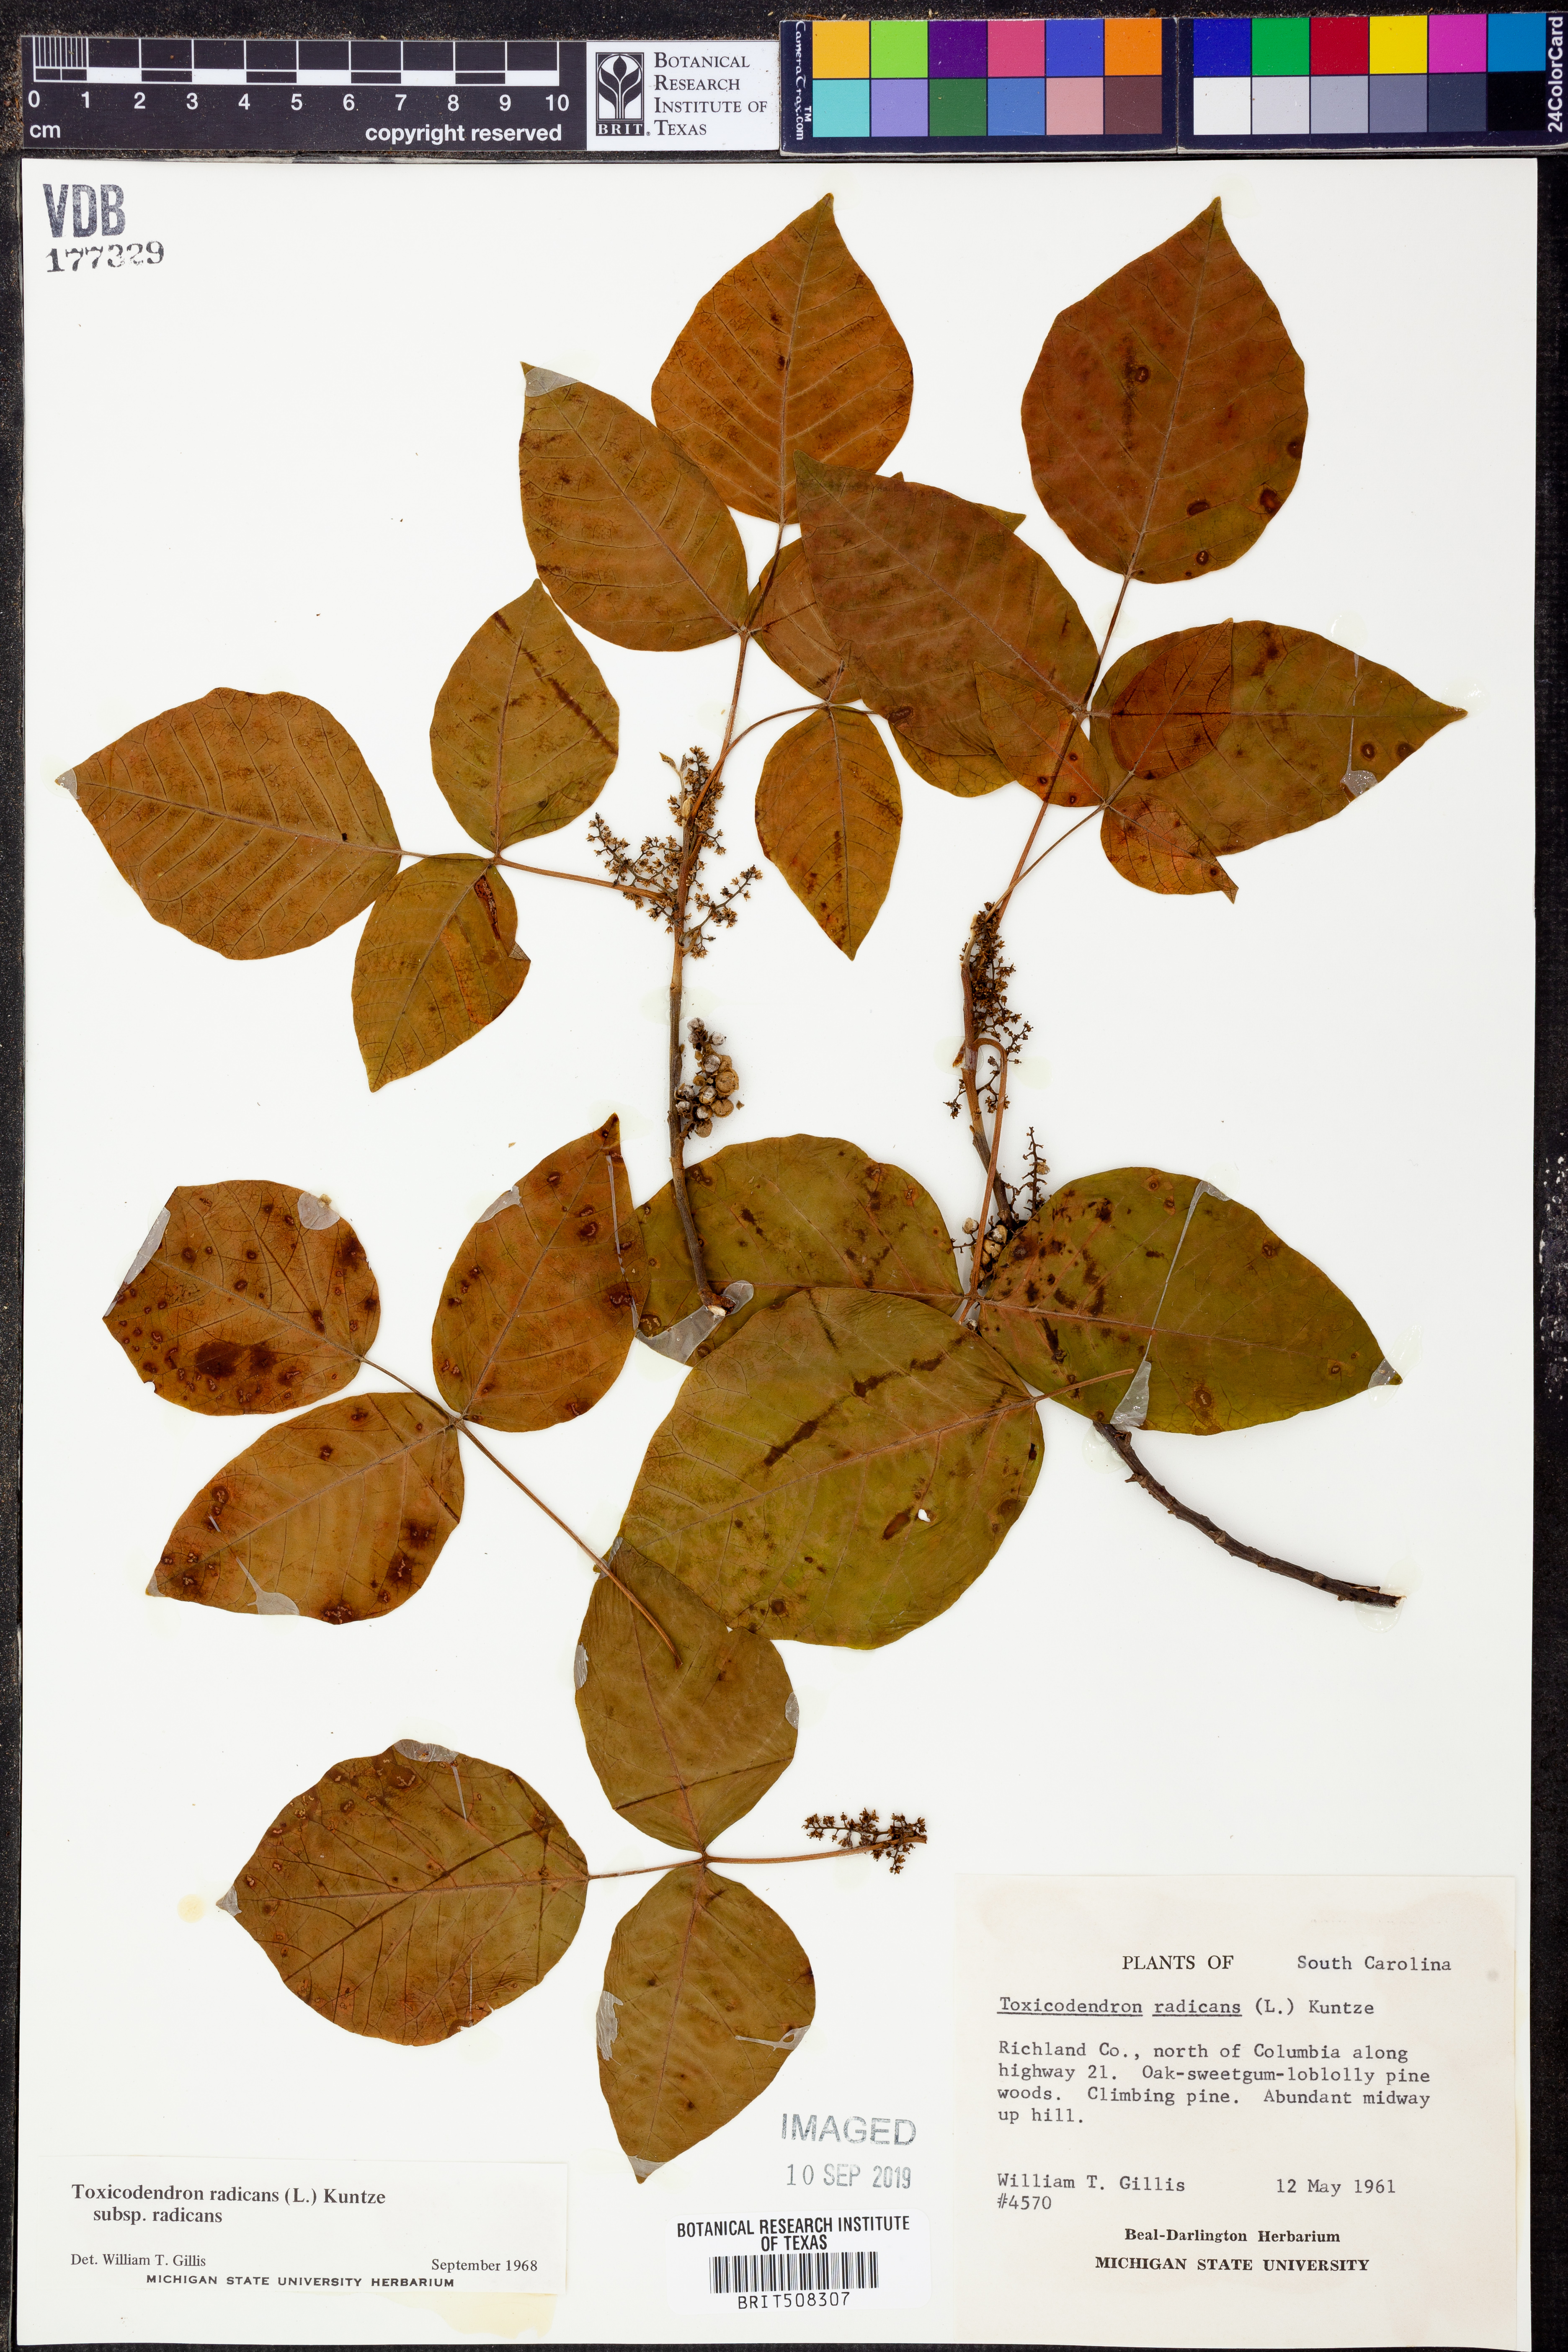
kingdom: Plantae
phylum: Tracheophyta
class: Magnoliopsida
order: Sapindales
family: Anacardiaceae
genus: Toxicodendron
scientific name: Toxicodendron radicans
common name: Poison ivy
